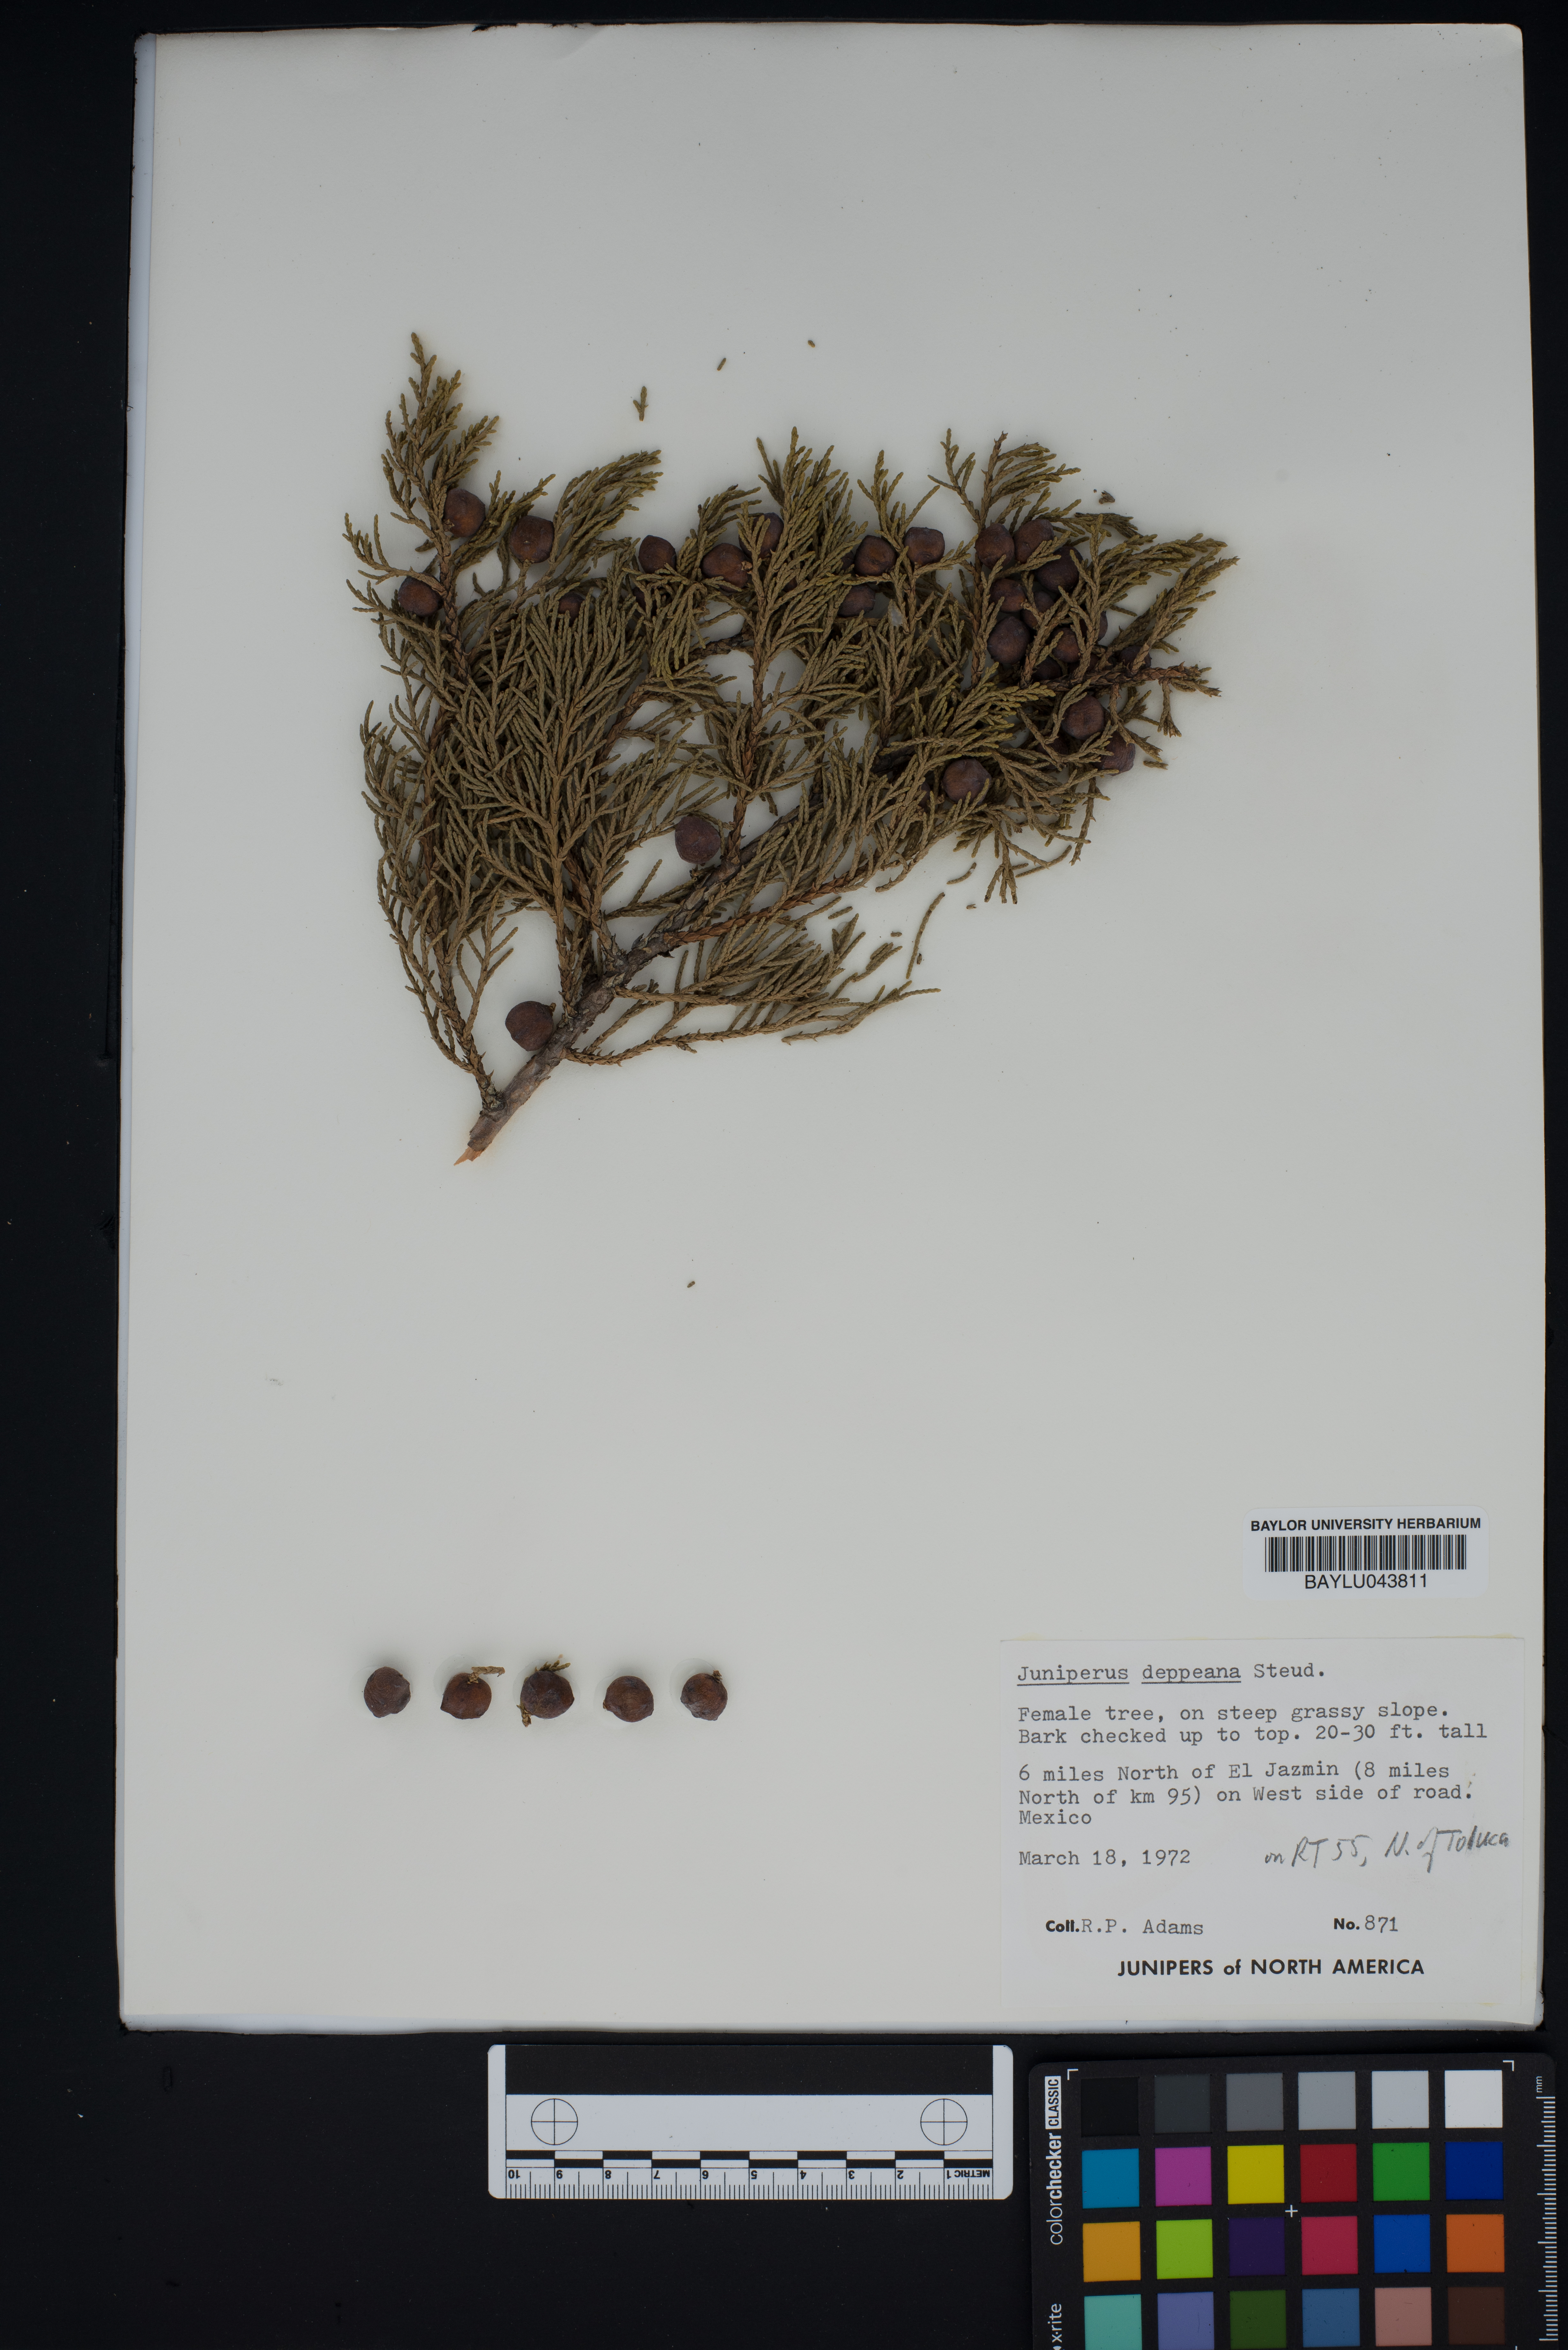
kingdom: Plantae
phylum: Tracheophyta
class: Pinopsida
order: Pinales
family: Cupressaceae
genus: Juniperus
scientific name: Juniperus deppeana
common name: Alligator juniper
